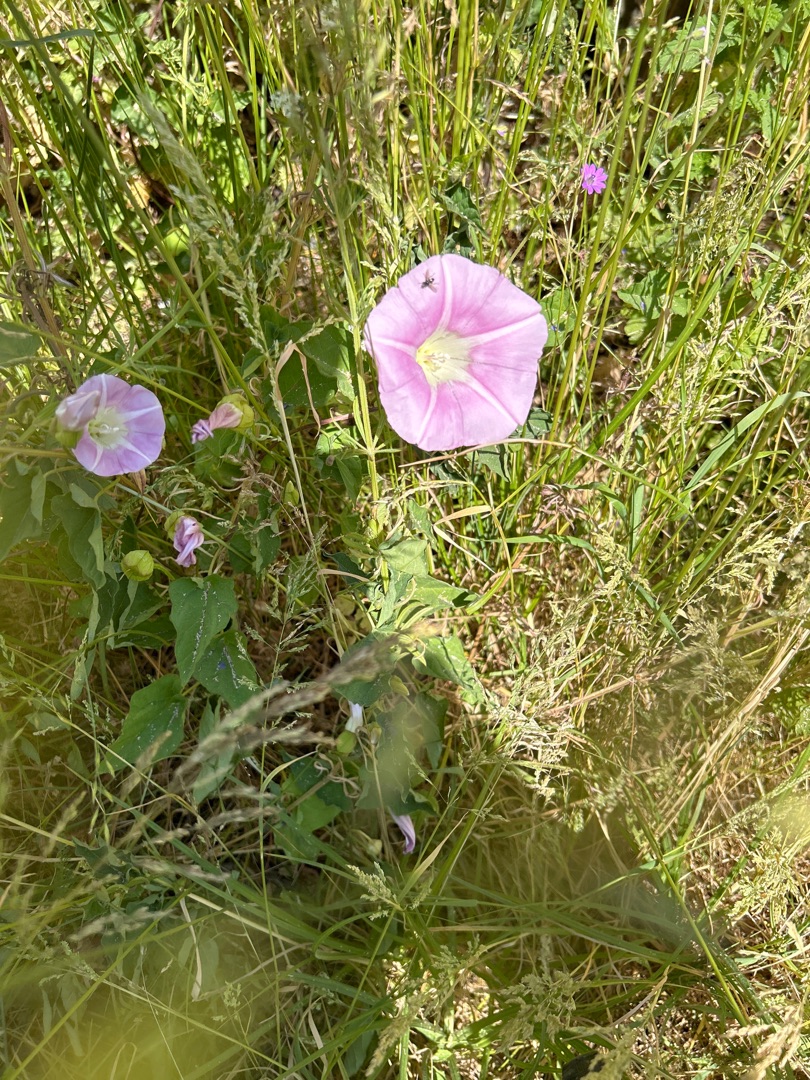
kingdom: Plantae
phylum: Tracheophyta
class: Magnoliopsida
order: Solanales
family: Convolvulaceae
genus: Calystegia
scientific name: Calystegia pulchra
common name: Have-snerle
